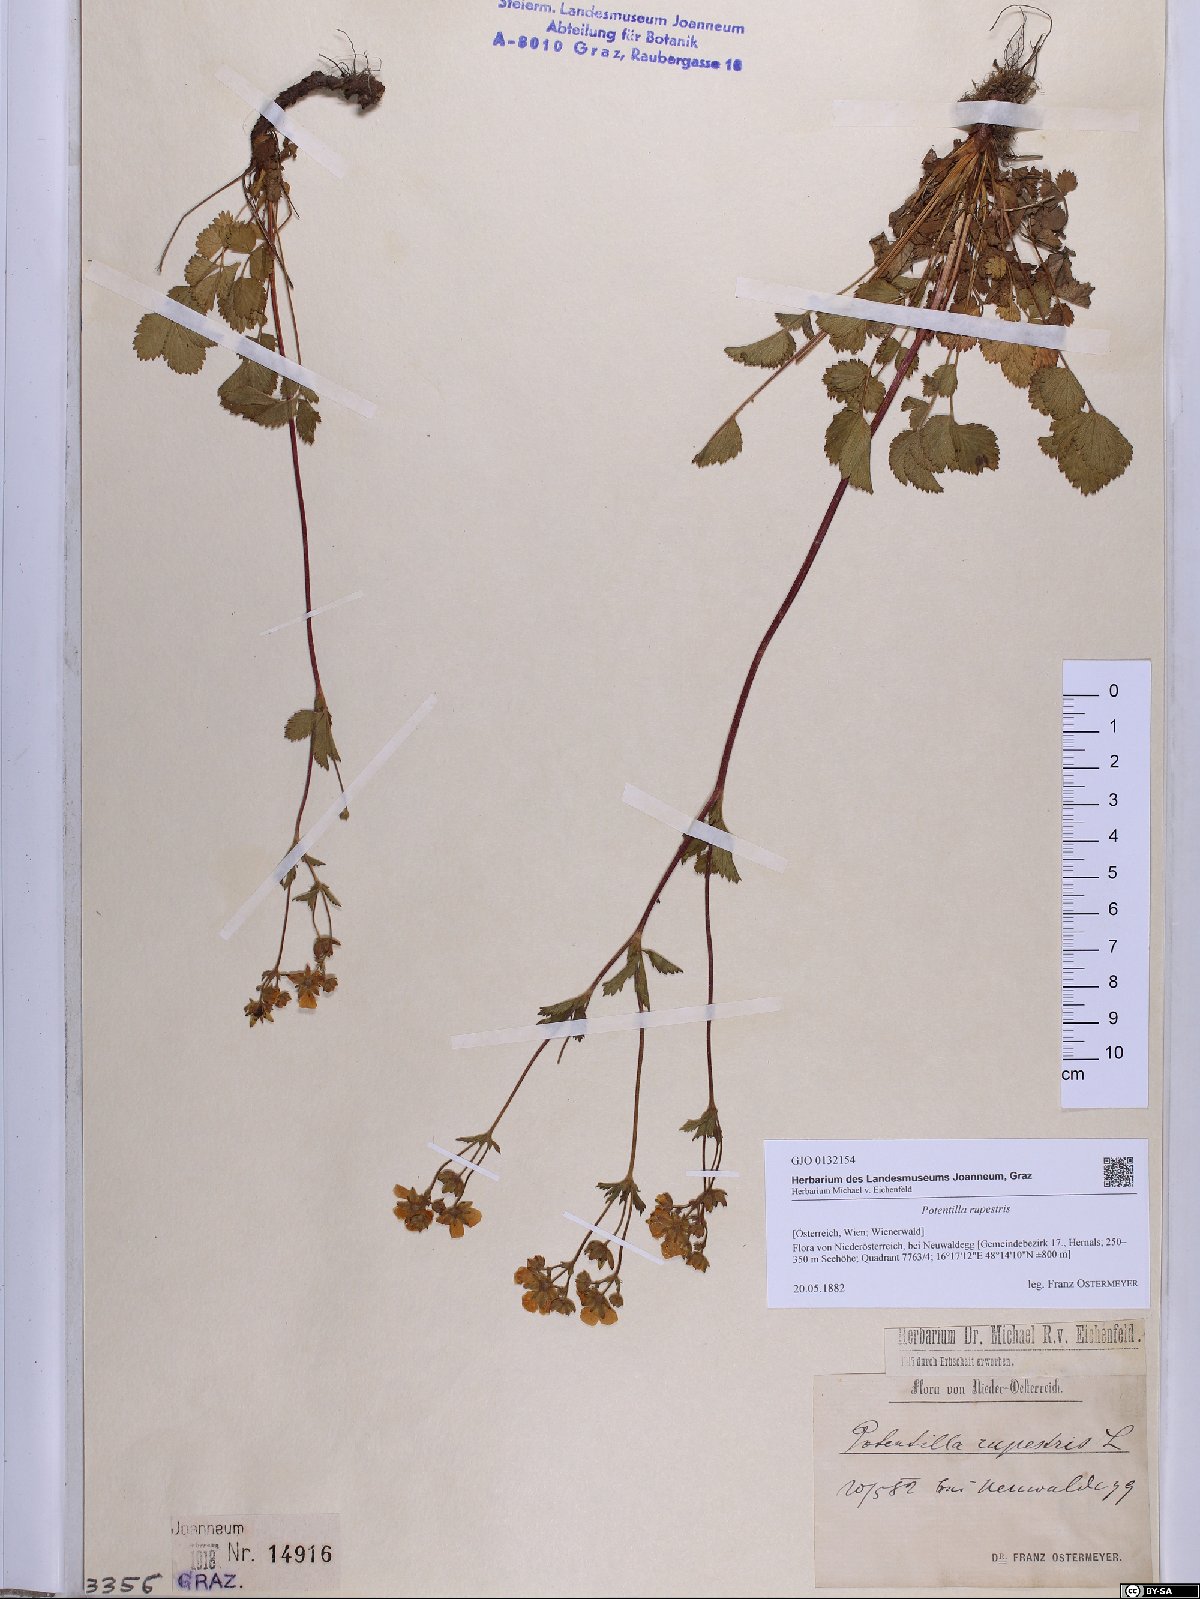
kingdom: Plantae
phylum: Tracheophyta
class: Magnoliopsida
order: Rosales
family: Rosaceae
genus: Drymocallis
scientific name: Drymocallis rupestris
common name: Rock cinquefoil
